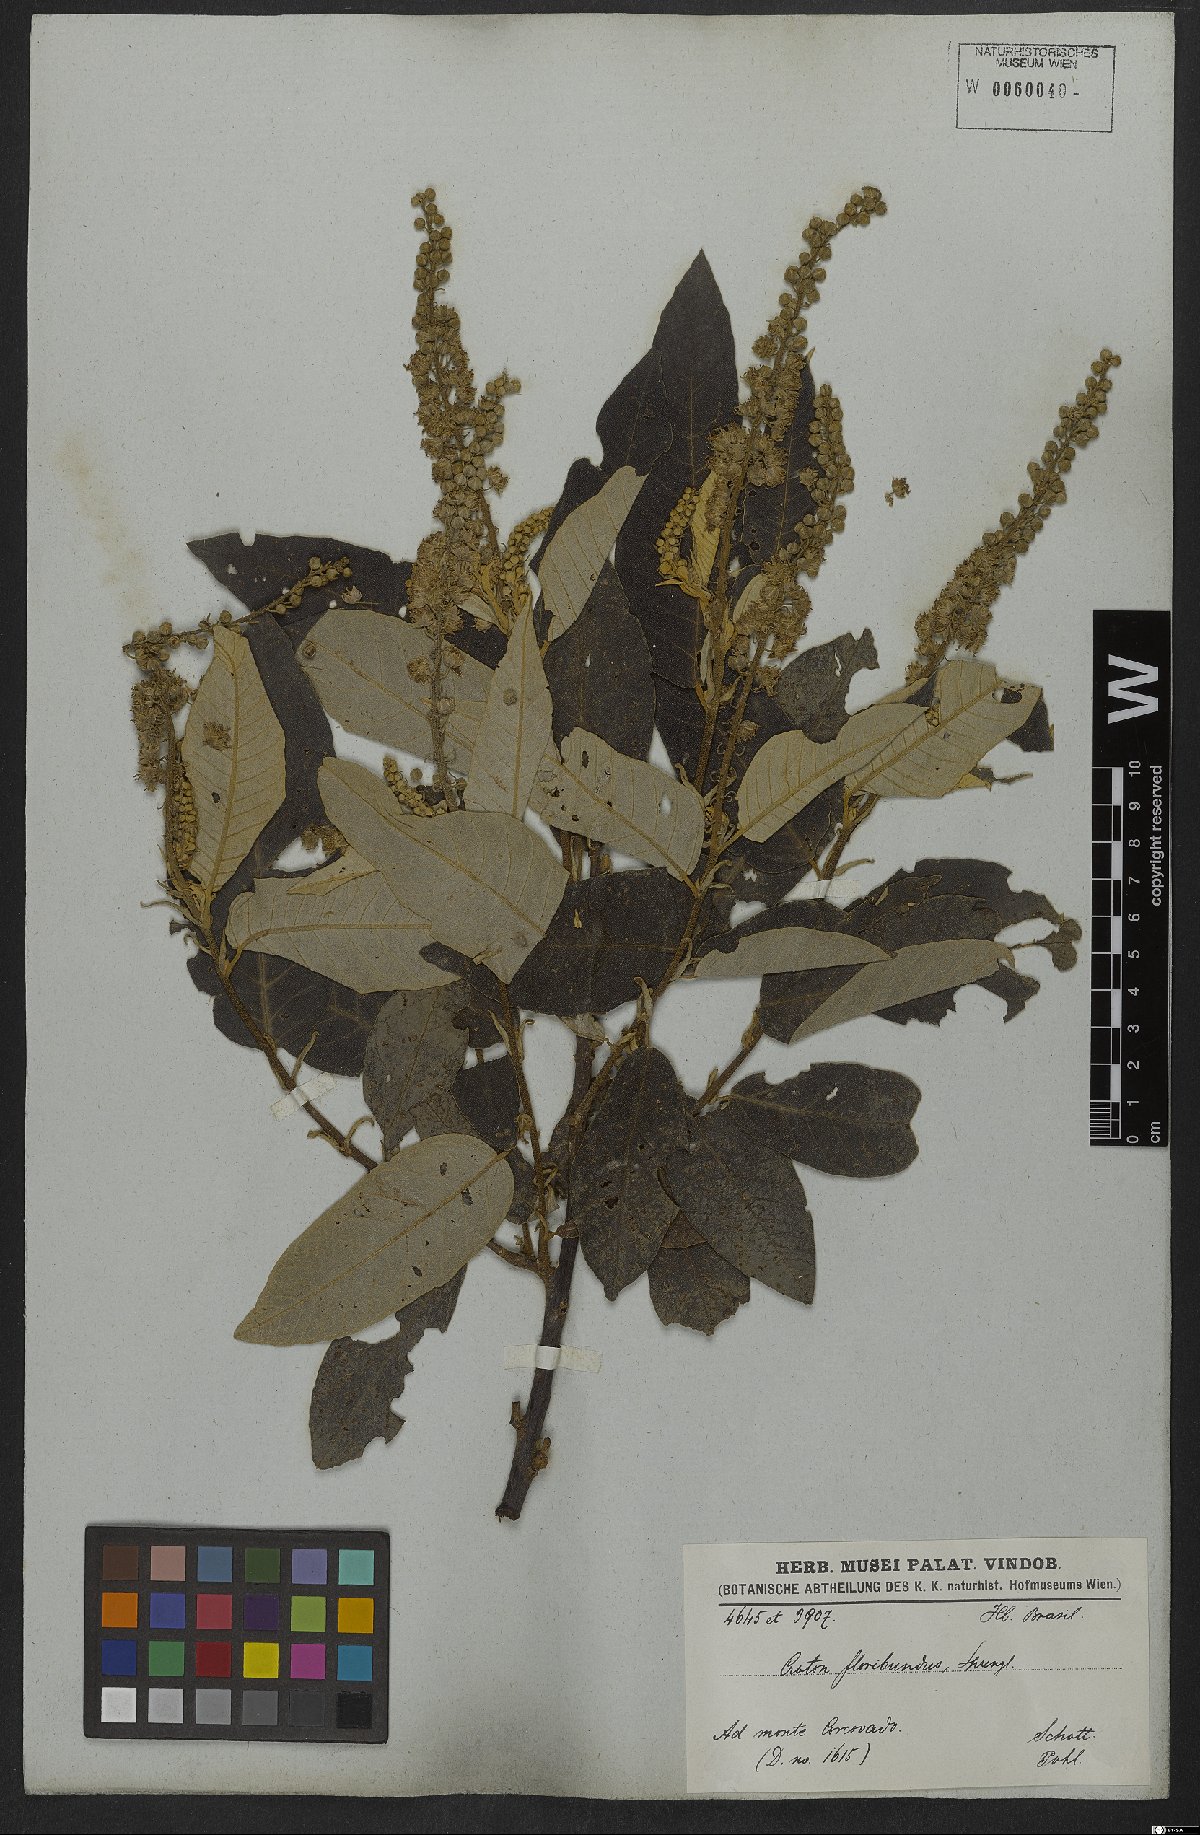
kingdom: Plantae
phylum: Tracheophyta
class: Magnoliopsida
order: Malpighiales
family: Euphorbiaceae
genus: Croton
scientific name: Croton floribundus
